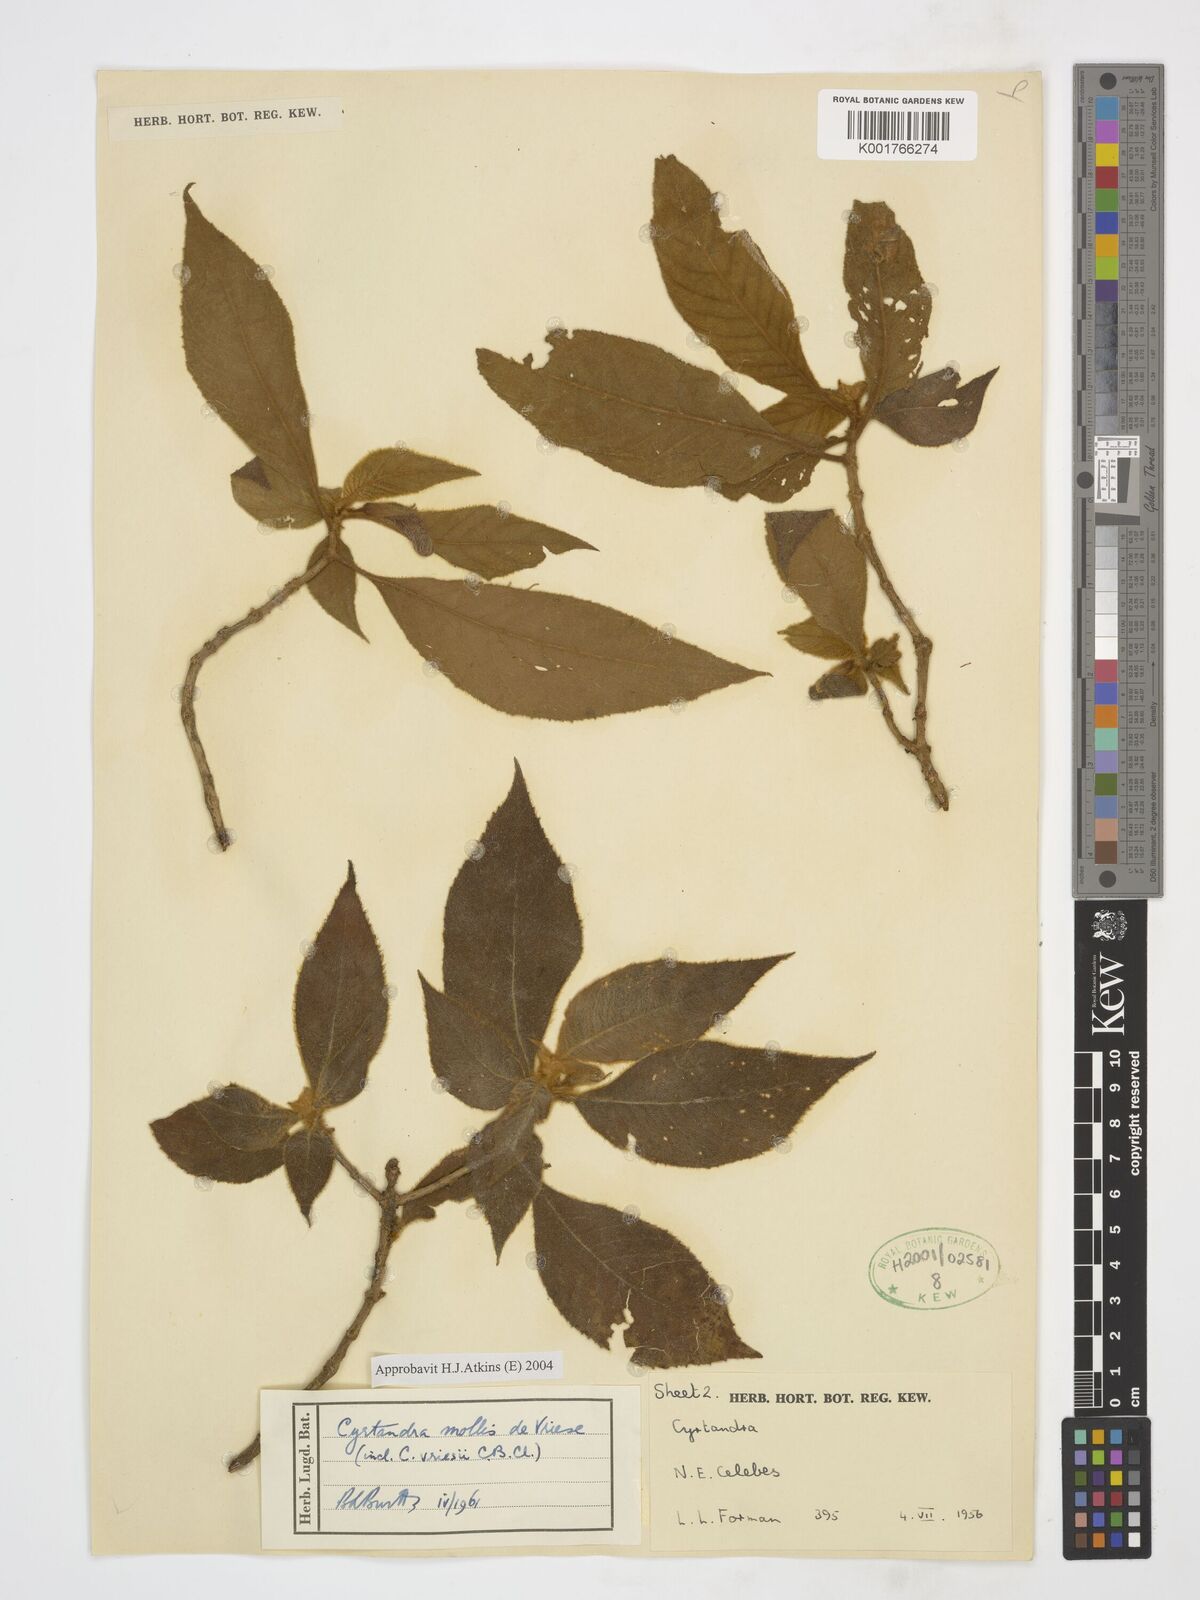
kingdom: Plantae
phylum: Tracheophyta
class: Magnoliopsida
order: Lamiales
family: Gesneriaceae
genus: Cyrtandra
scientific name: Cyrtandra mollis
